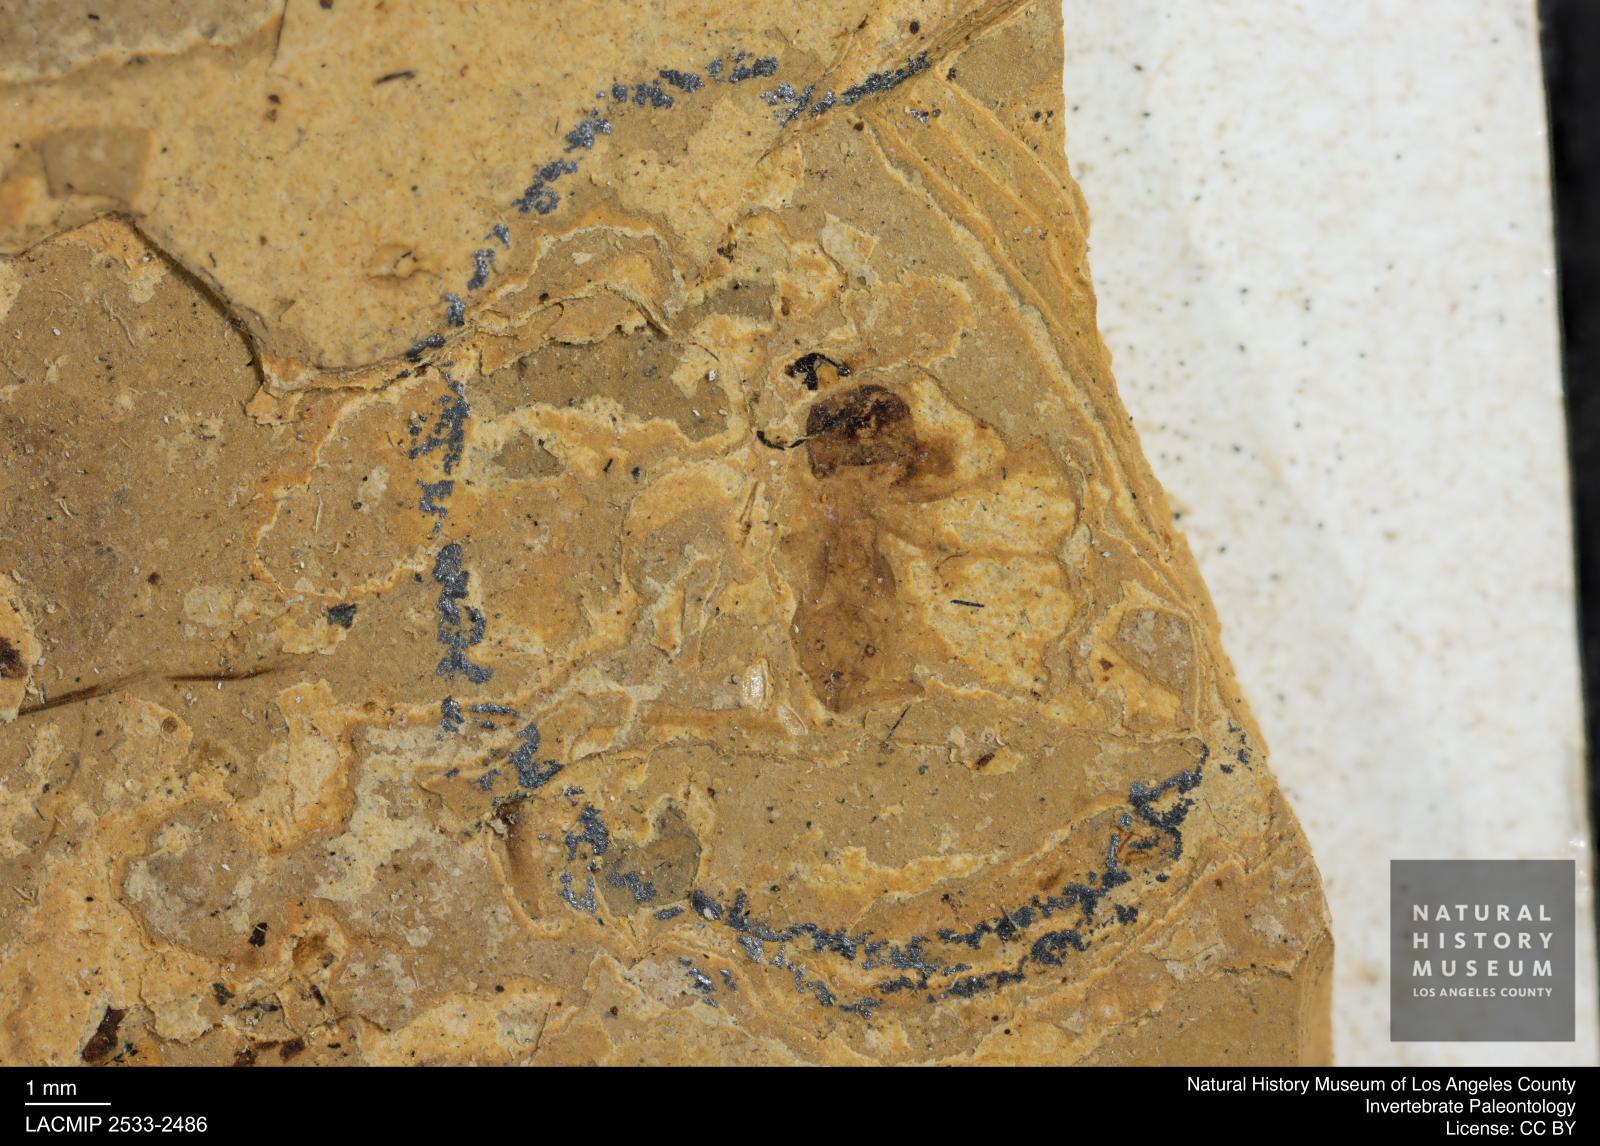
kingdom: Animalia
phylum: Arthropoda
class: Insecta
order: Hymenoptera
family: Formicidae
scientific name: Formicidae
